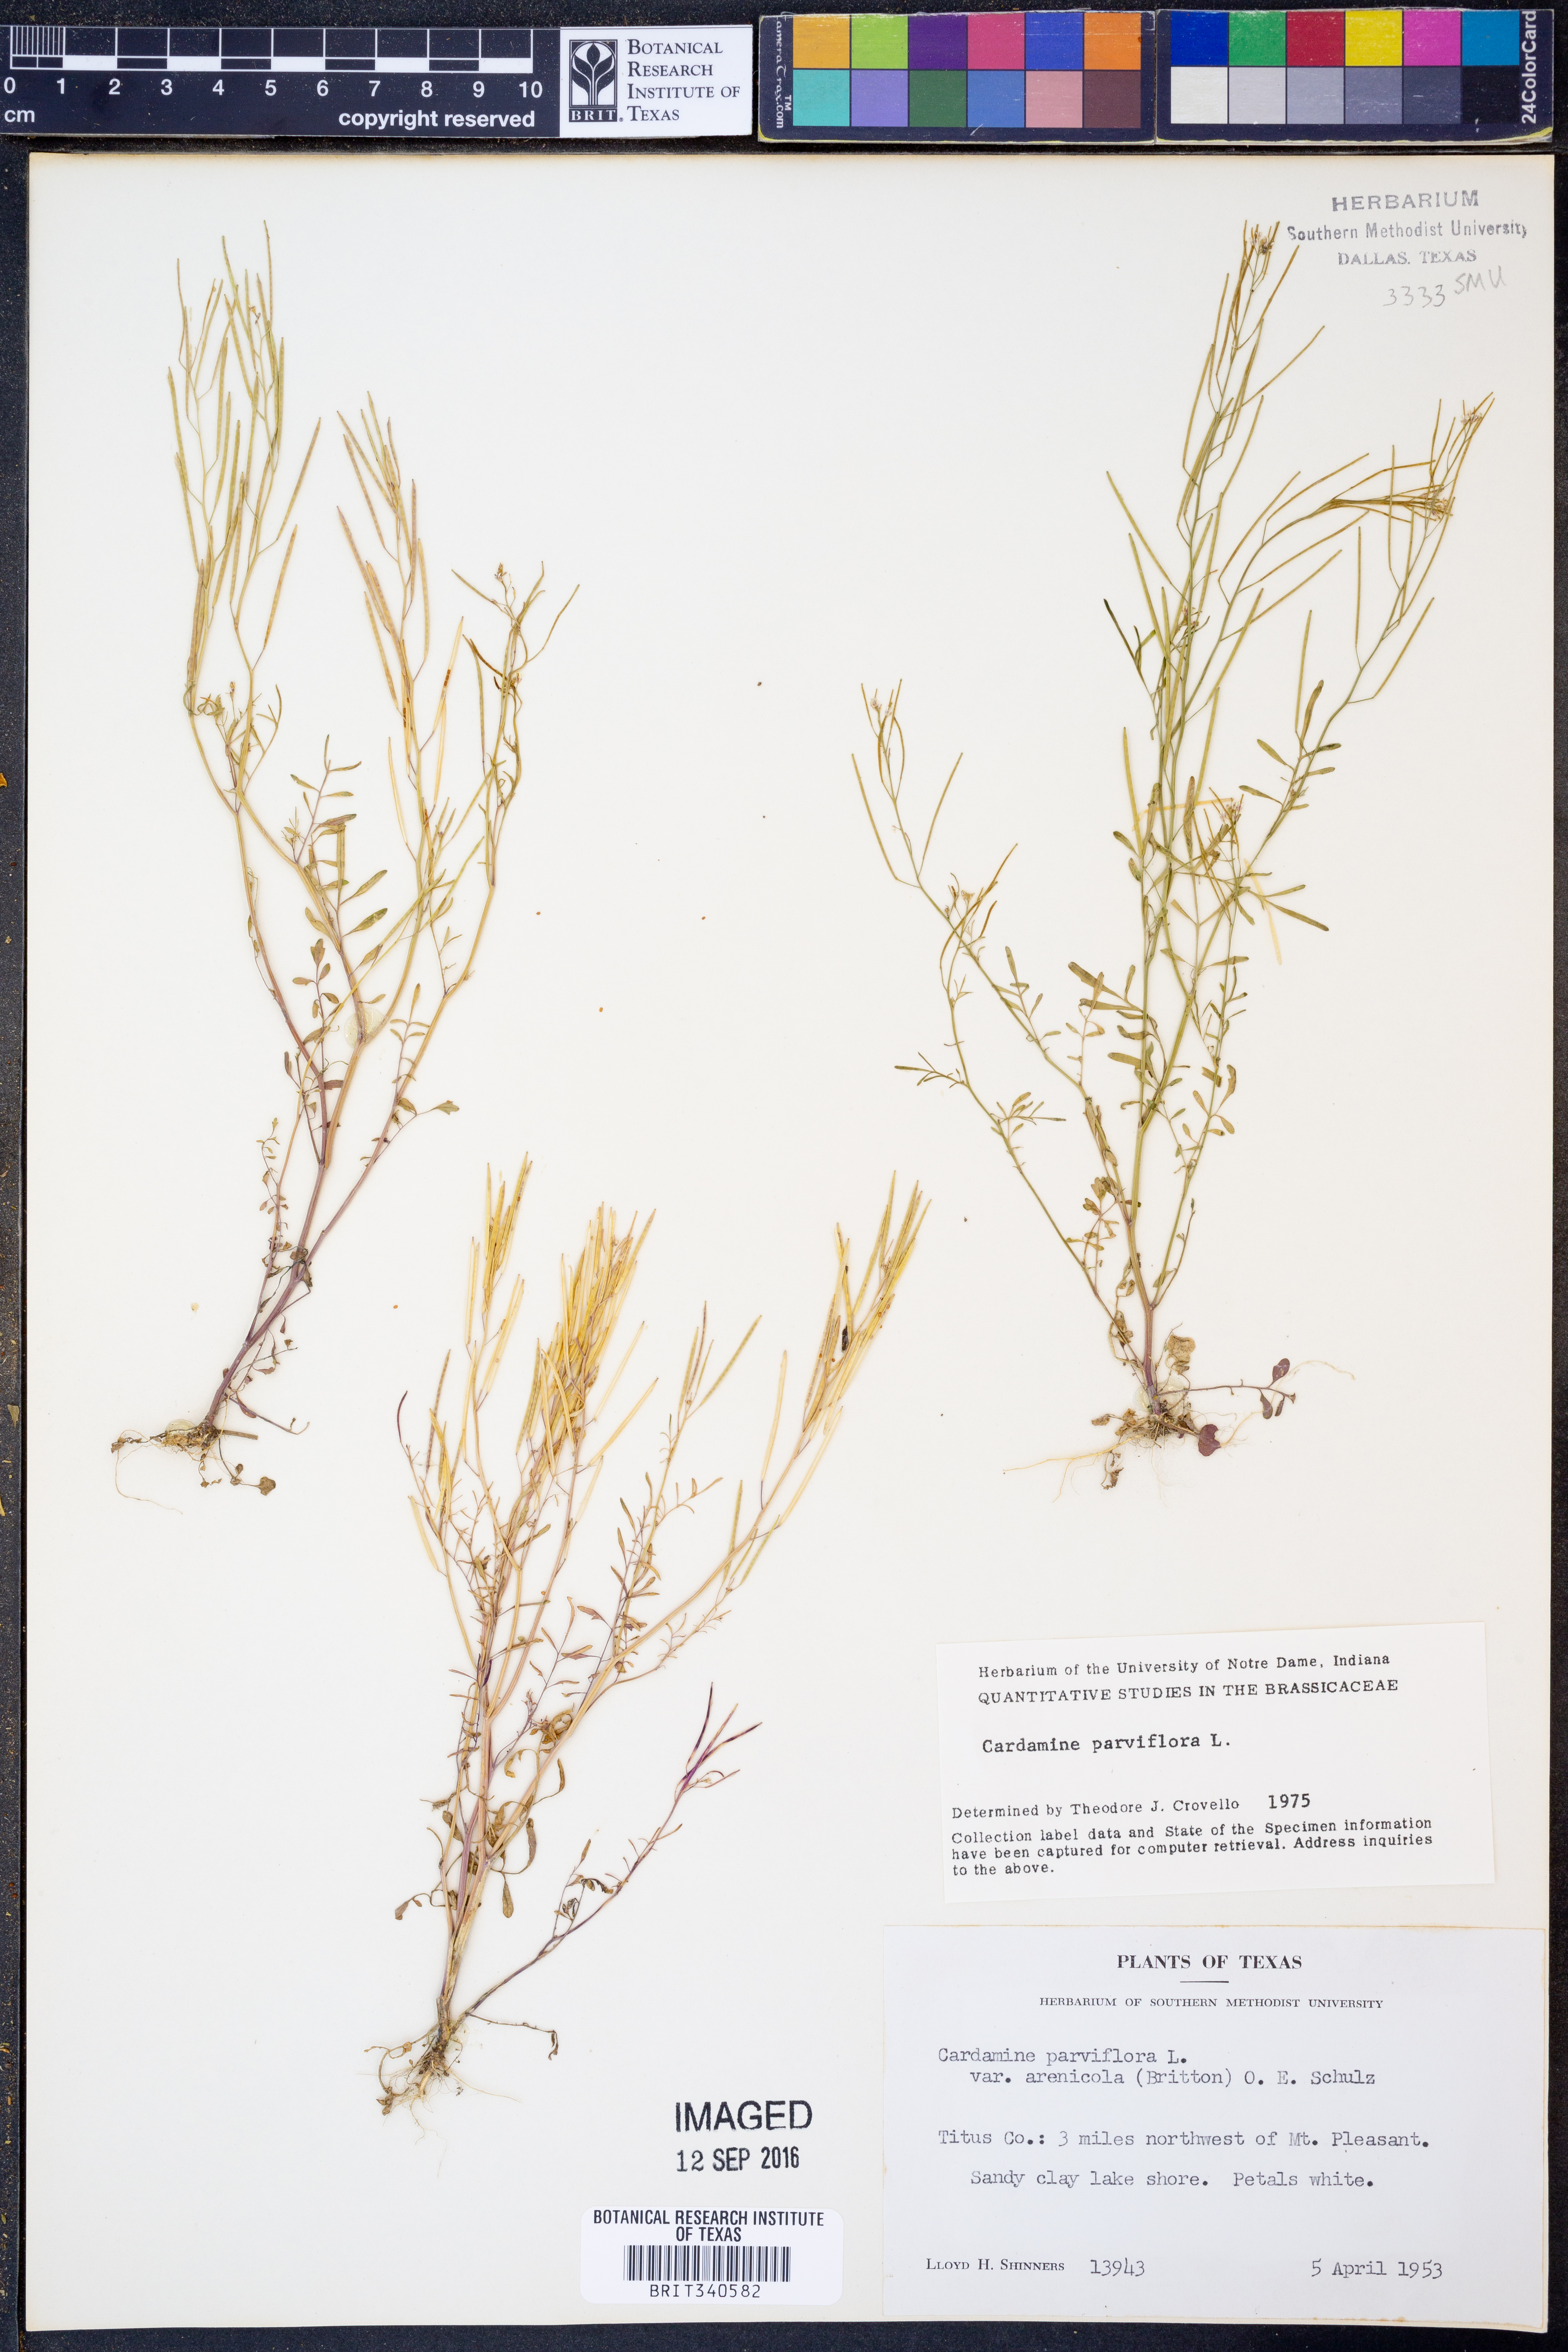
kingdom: Plantae
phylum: Tracheophyta
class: Magnoliopsida
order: Brassicales
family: Brassicaceae
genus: Cardamine
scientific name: Cardamine parviflora
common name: Sand bittercress
